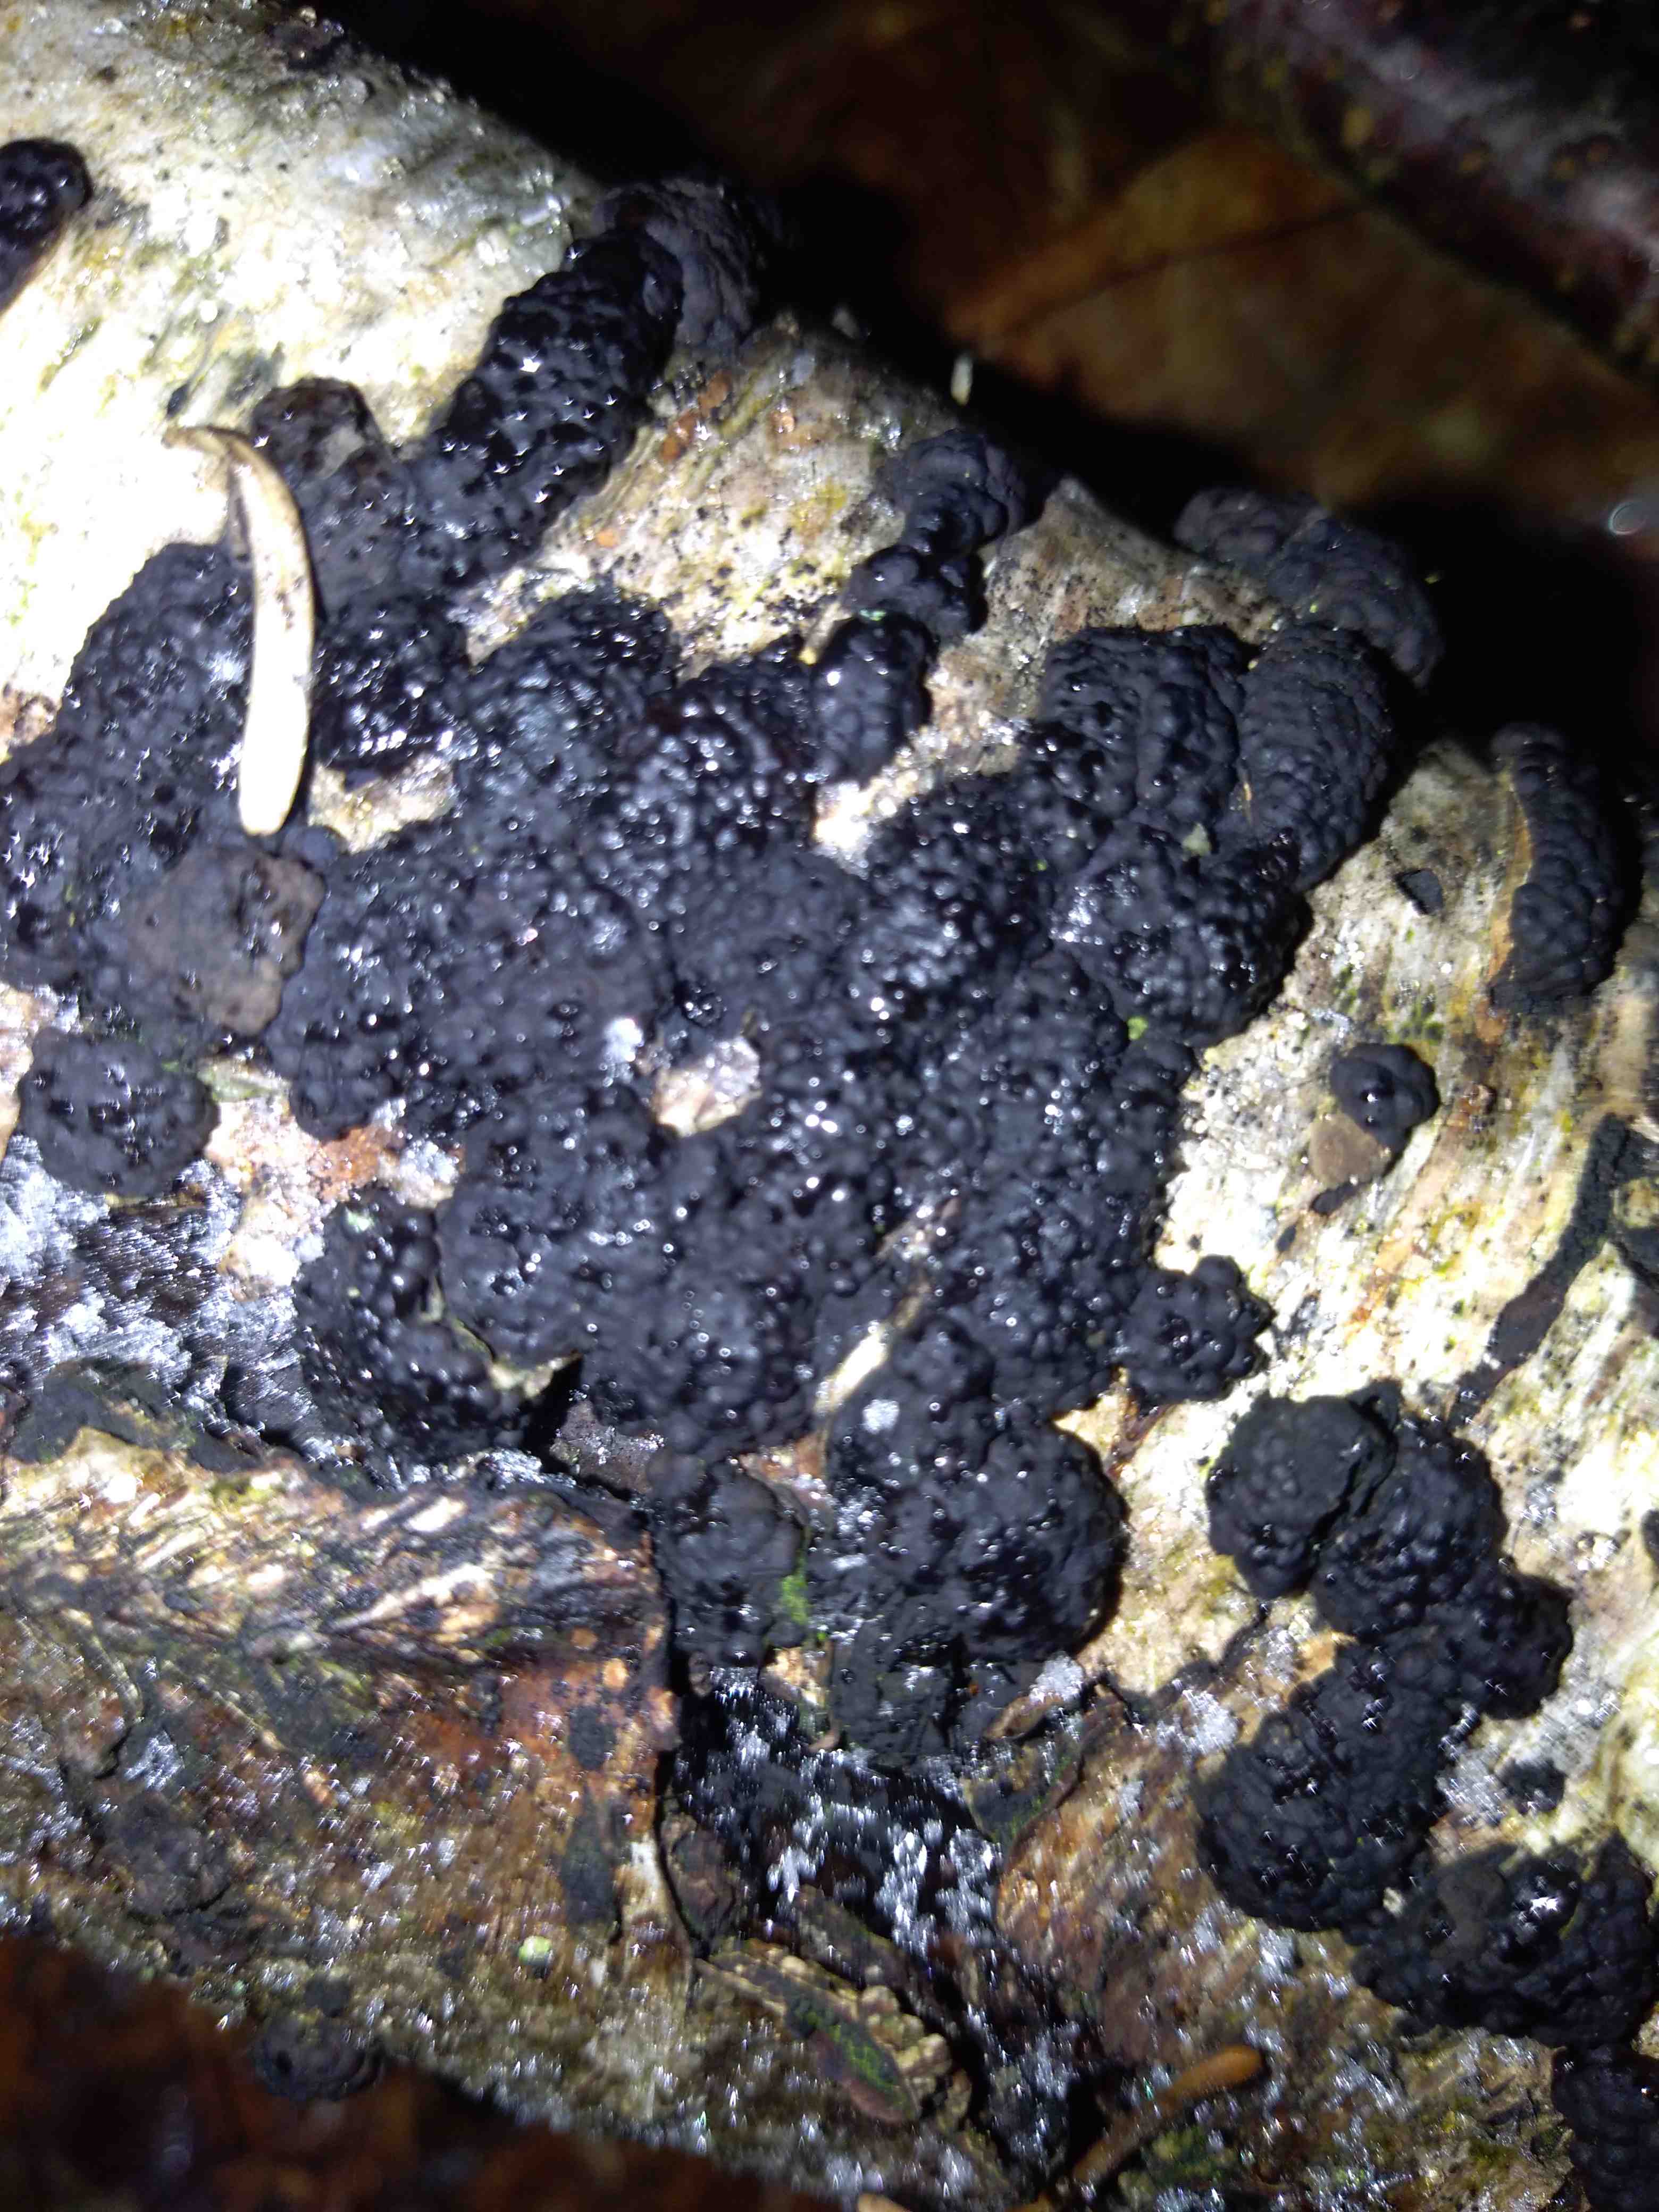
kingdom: Fungi
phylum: Ascomycota
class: Sordariomycetes
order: Xylariales
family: Hypoxylaceae
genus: Jackrogersella
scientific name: Jackrogersella multiformis
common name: foranderlig kulbær
